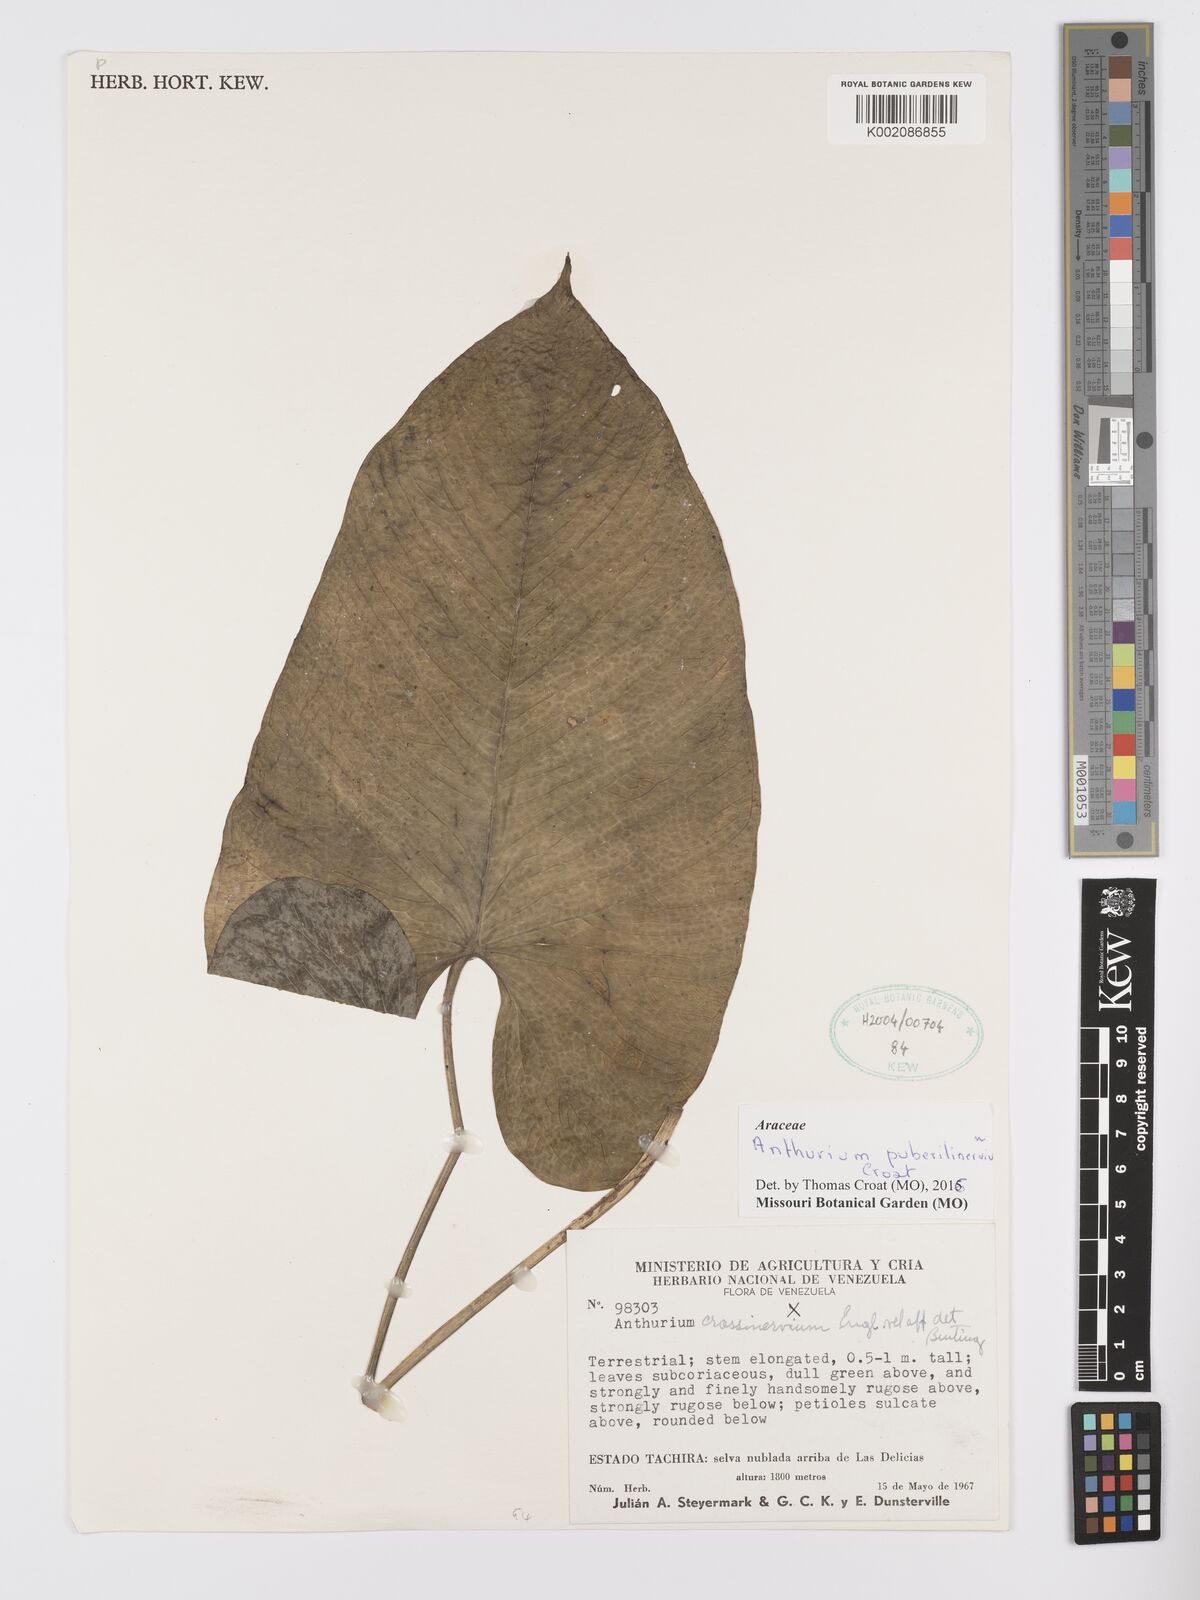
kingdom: Plantae
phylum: Tracheophyta
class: Liliopsida
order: Alismatales
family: Araceae
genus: Anthurium
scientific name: Anthurium puberulinervium
